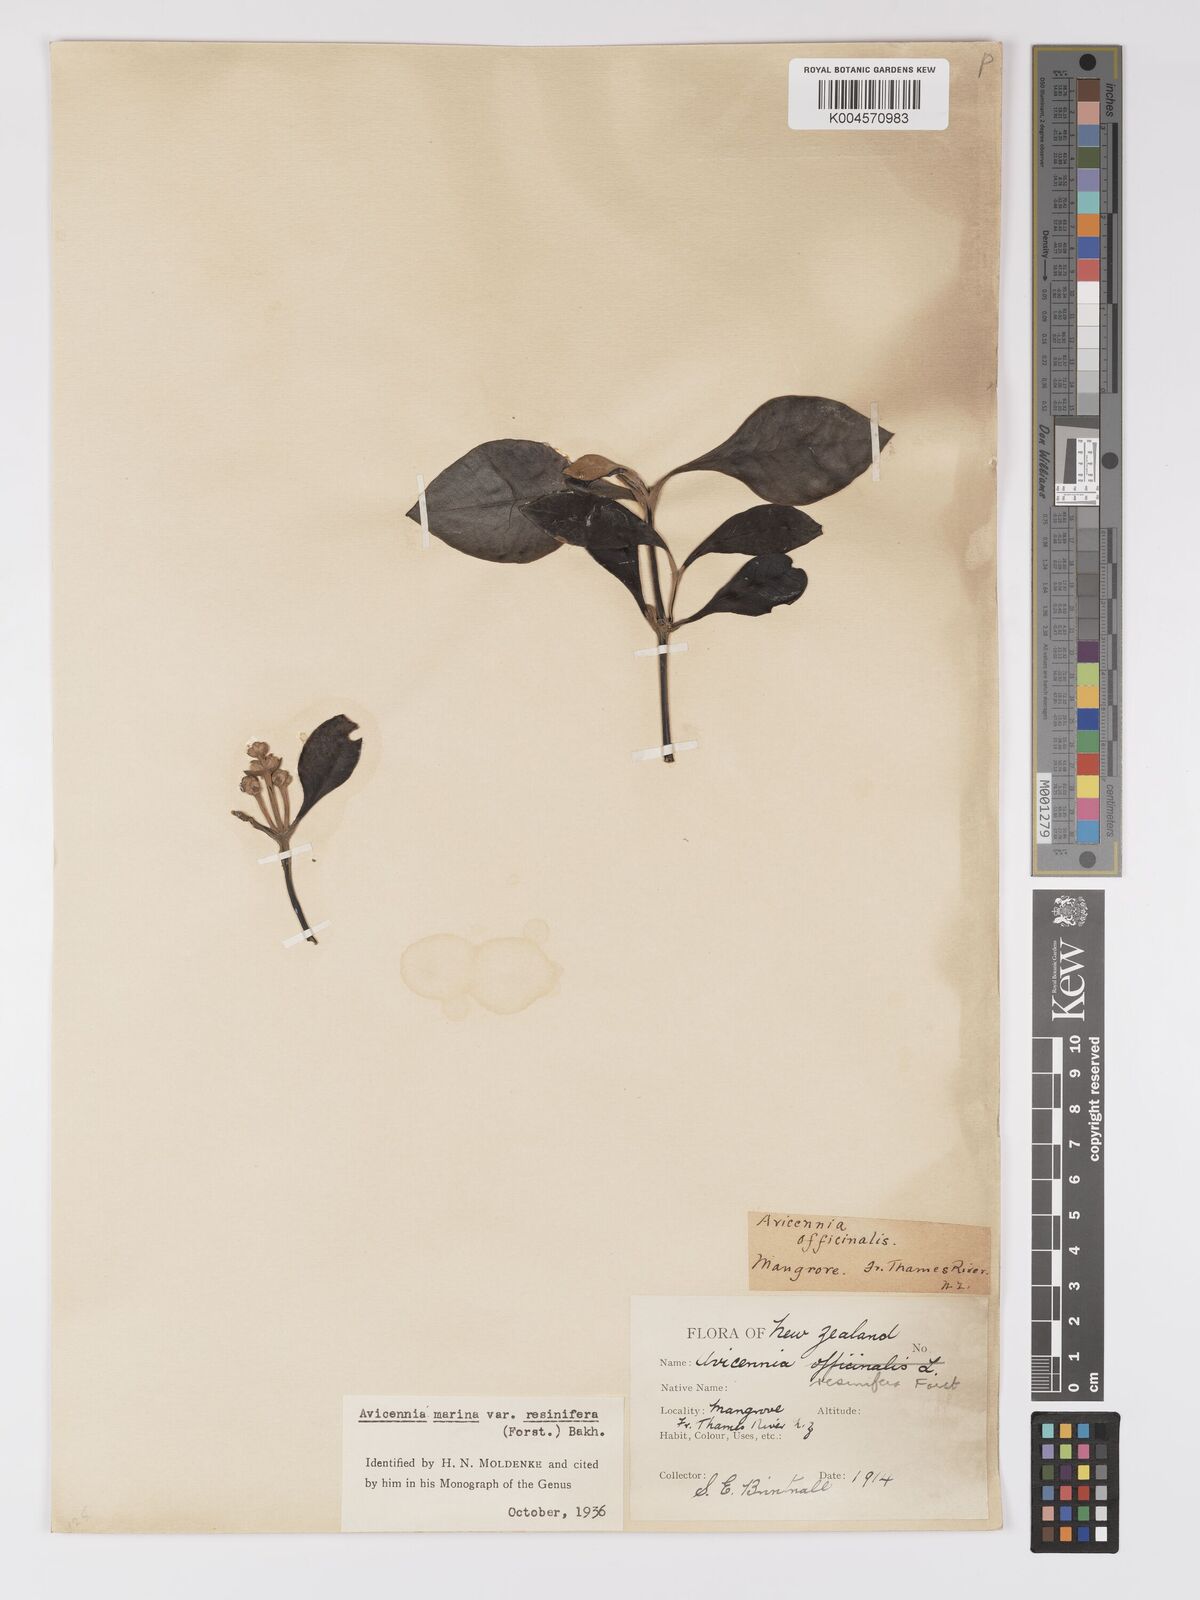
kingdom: Plantae
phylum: Tracheophyta
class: Magnoliopsida
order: Lamiales
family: Acanthaceae
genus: Avicennia
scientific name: Avicennia marina
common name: Gray mangrove
